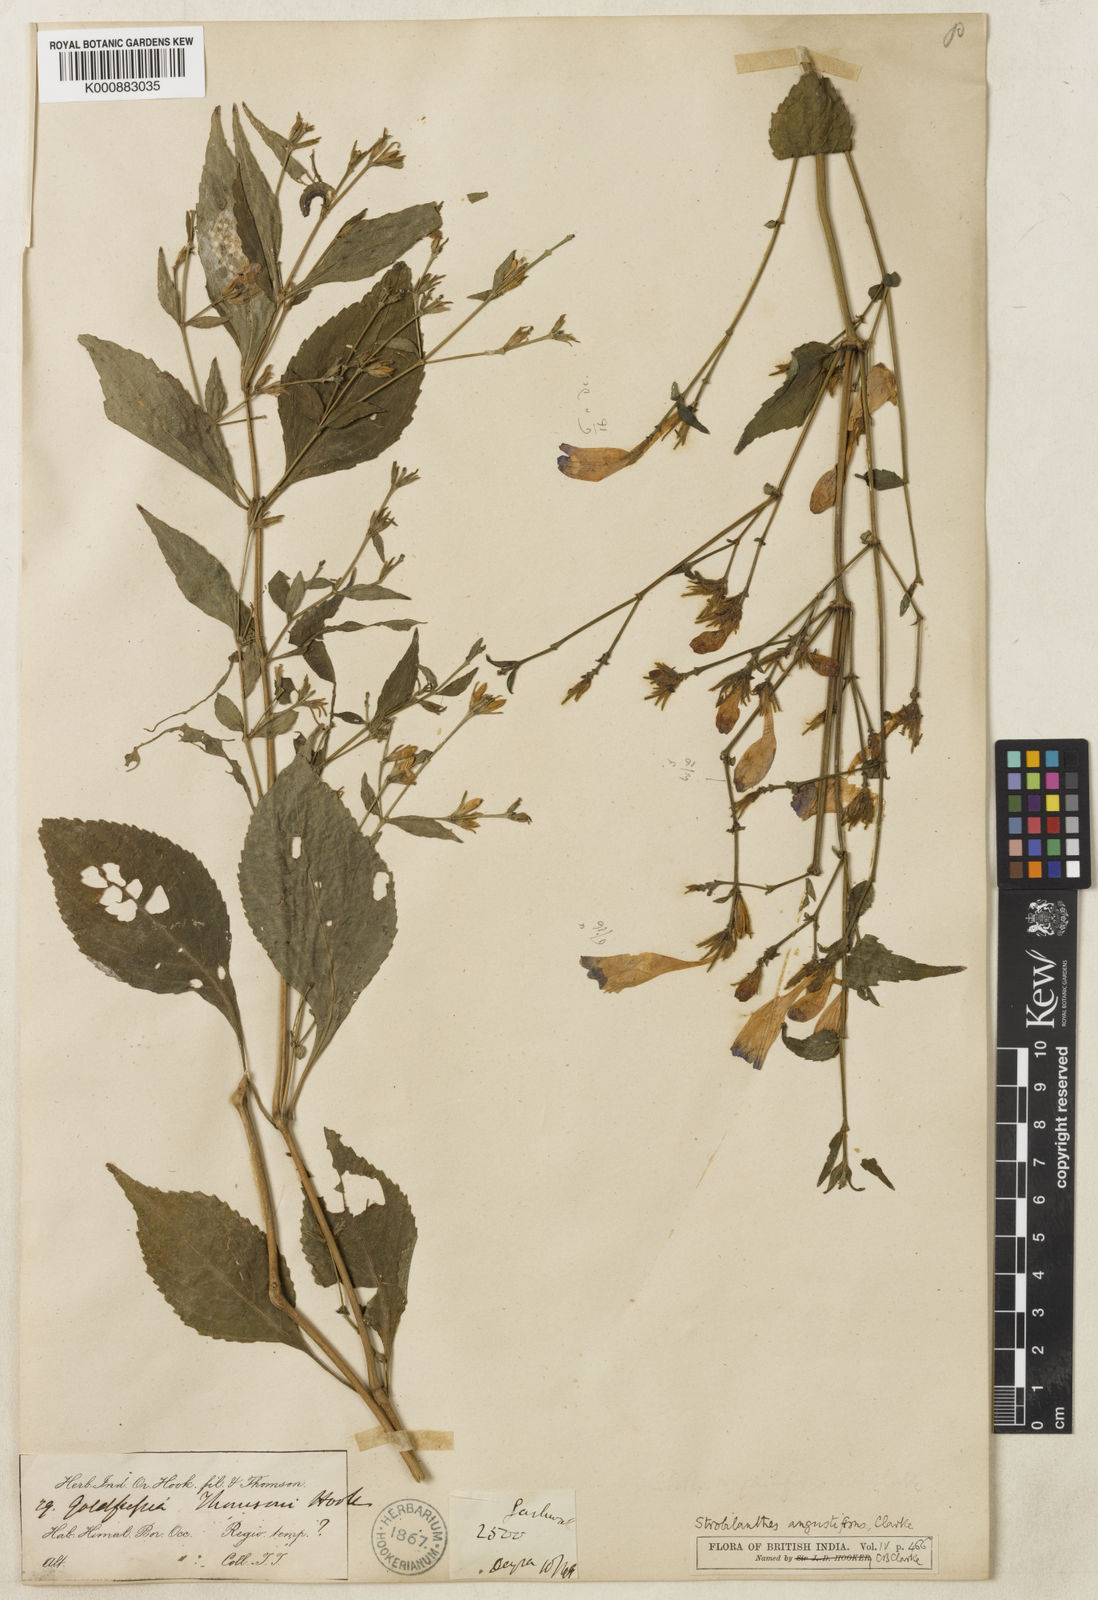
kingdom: Plantae
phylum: Tracheophyta
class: Magnoliopsida
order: Lamiales
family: Acanthaceae
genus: Strobilanthes
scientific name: Strobilanthes angustifrons
